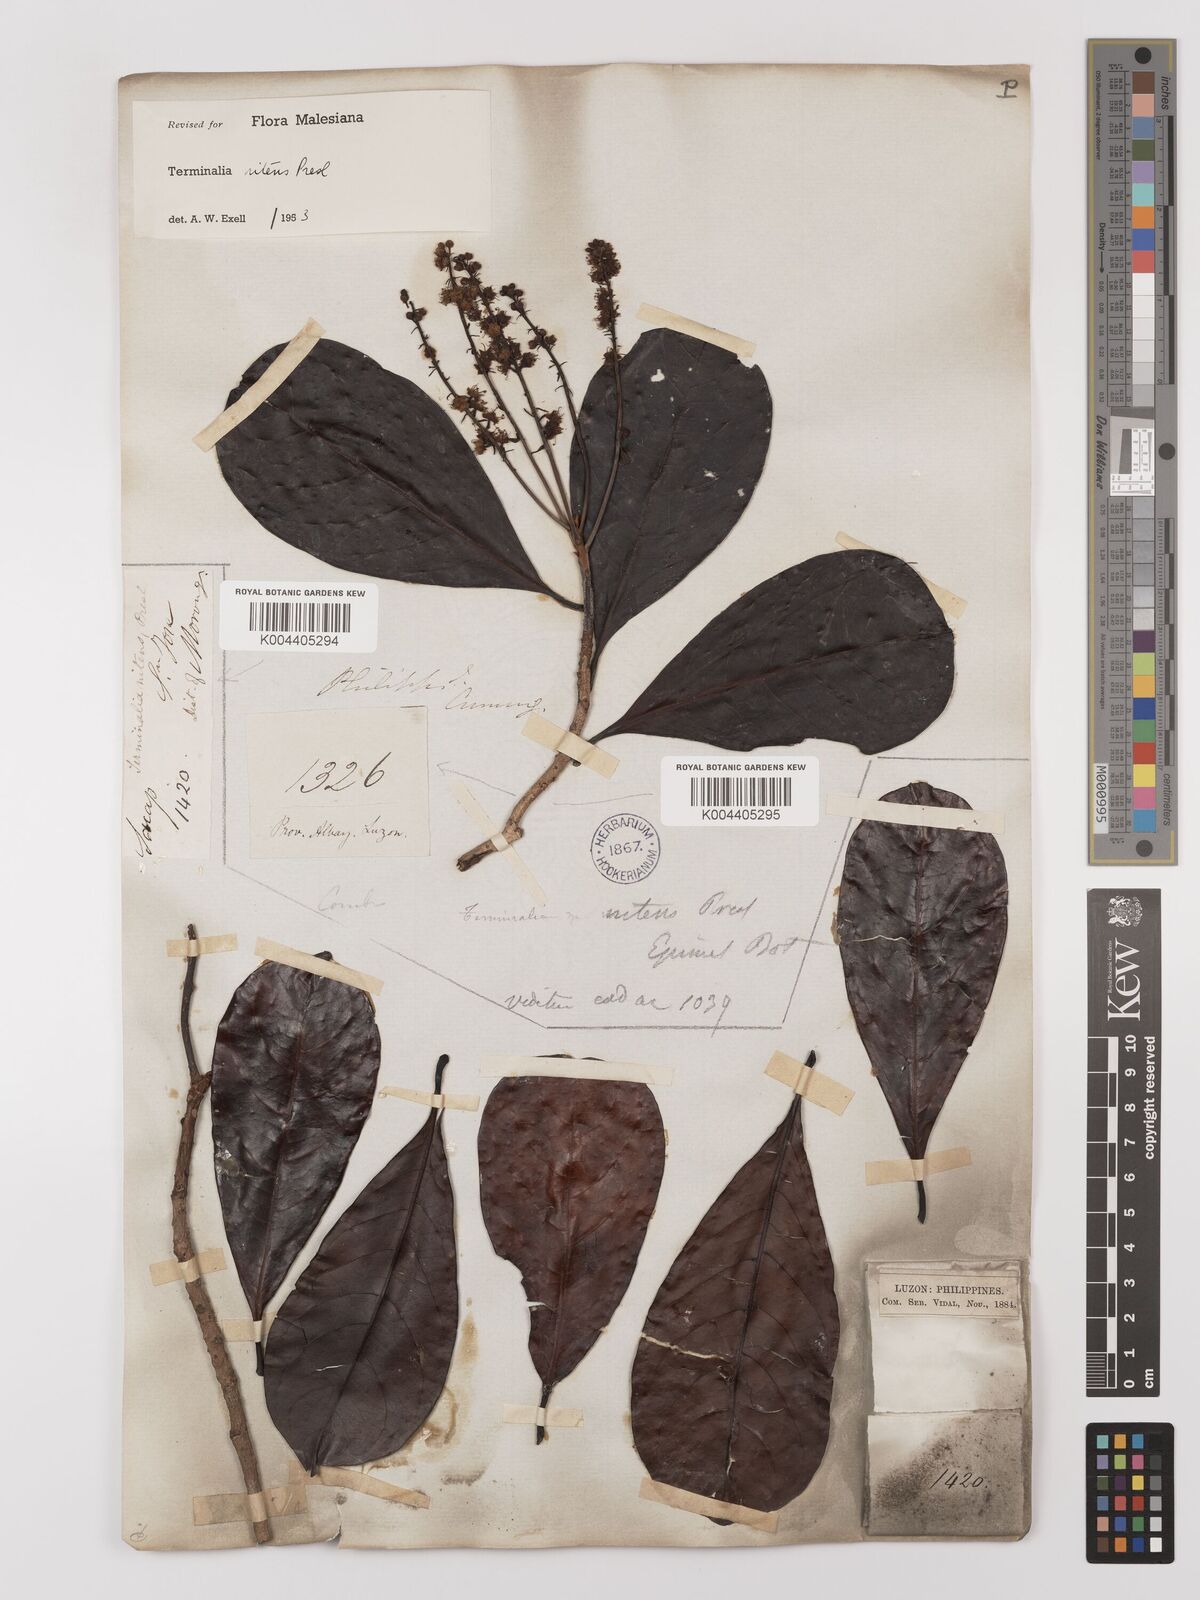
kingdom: Plantae
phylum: Tracheophyta
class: Magnoliopsida
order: Myrtales
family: Combretaceae
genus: Terminalia
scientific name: Terminalia nitens
